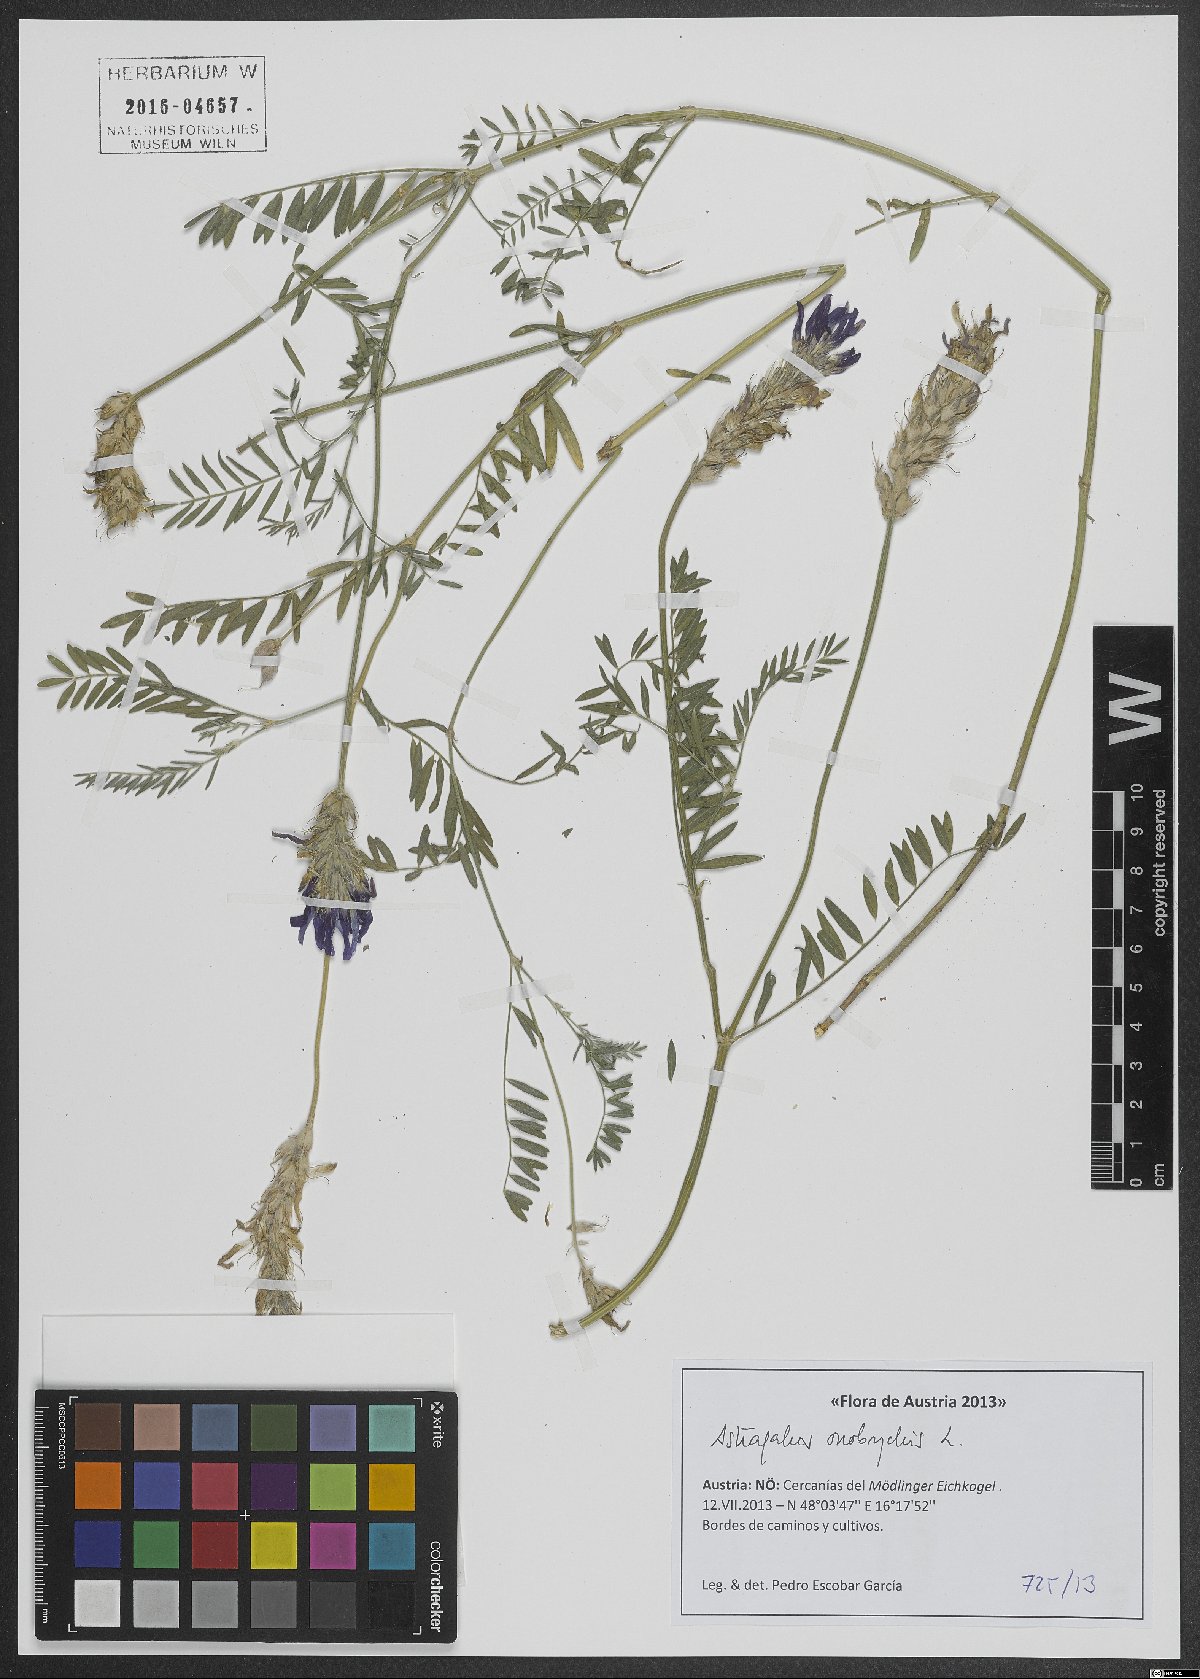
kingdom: Plantae
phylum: Tracheophyta
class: Magnoliopsida
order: Fabales
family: Fabaceae
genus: Astragalus
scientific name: Astragalus onobrychis
